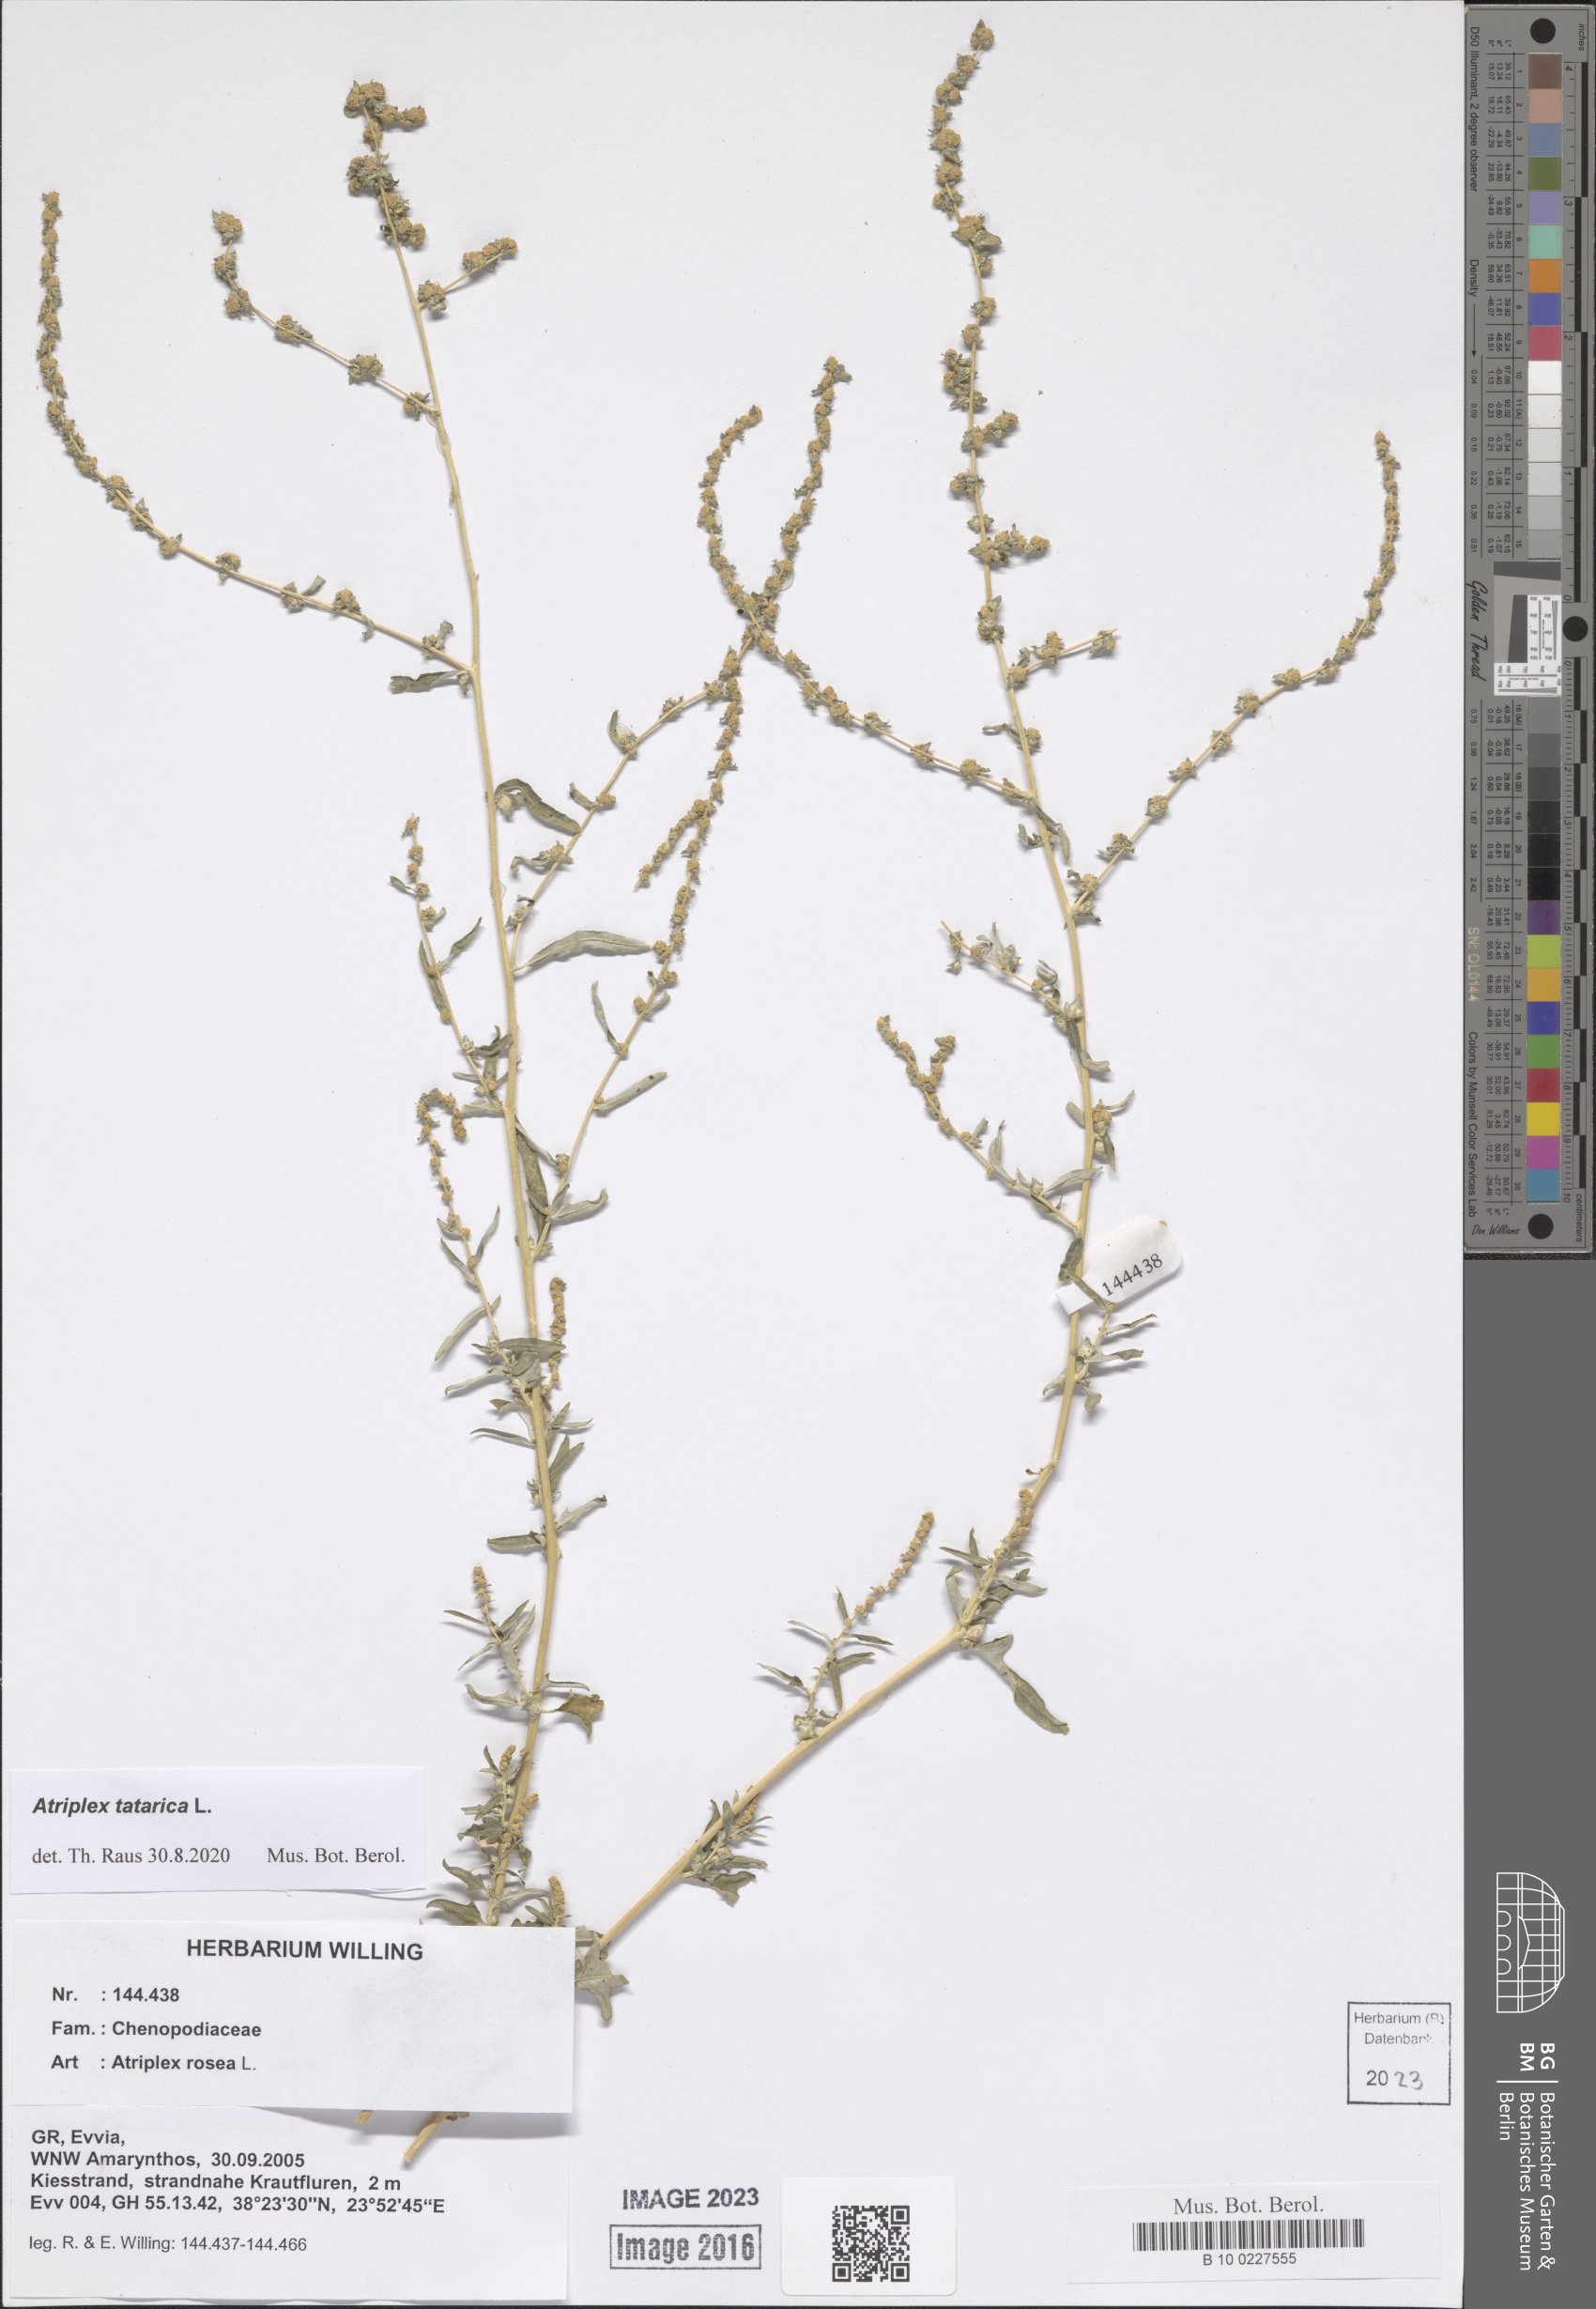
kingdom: Plantae
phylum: Tracheophyta
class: Magnoliopsida
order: Caryophyllales
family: Amaranthaceae
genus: Atriplex
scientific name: Atriplex tatarica
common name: Tatarian orache
